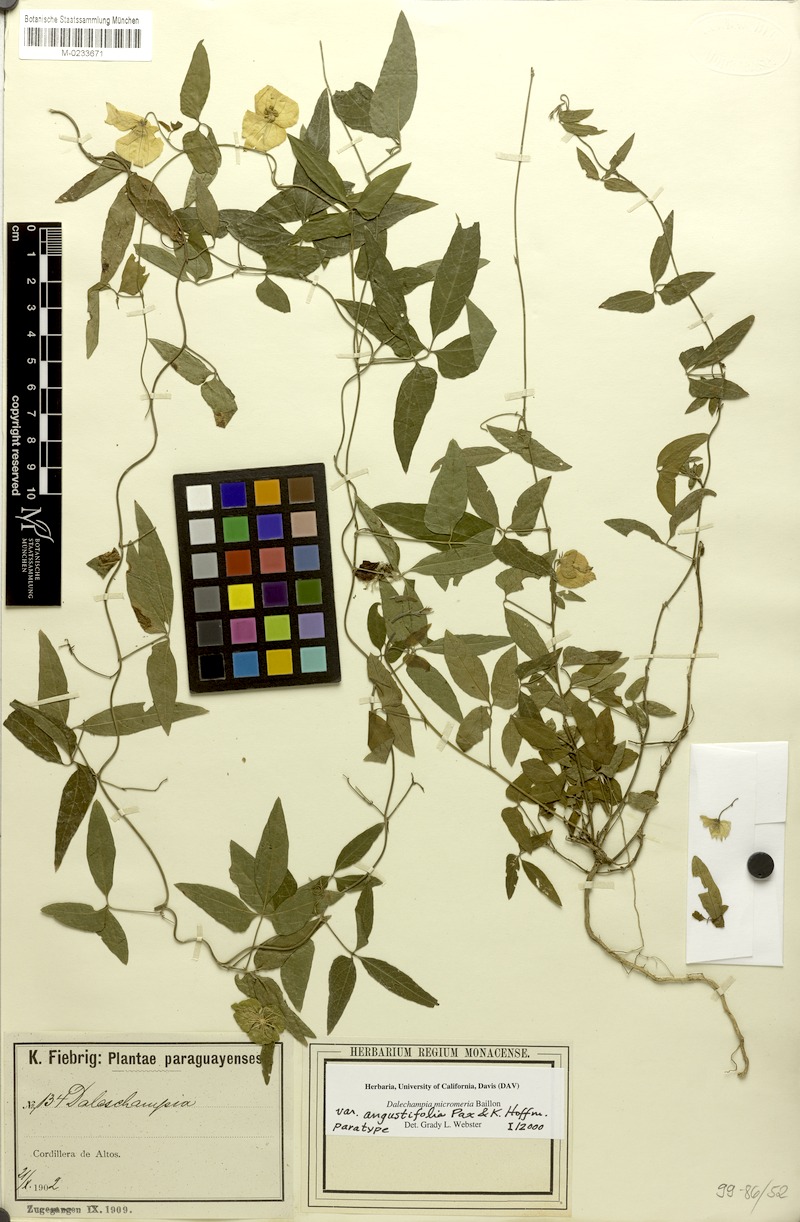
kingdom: Plantae
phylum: Tracheophyta
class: Magnoliopsida
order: Malpighiales
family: Euphorbiaceae
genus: Dalechampia
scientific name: Dalechampia micromeria
